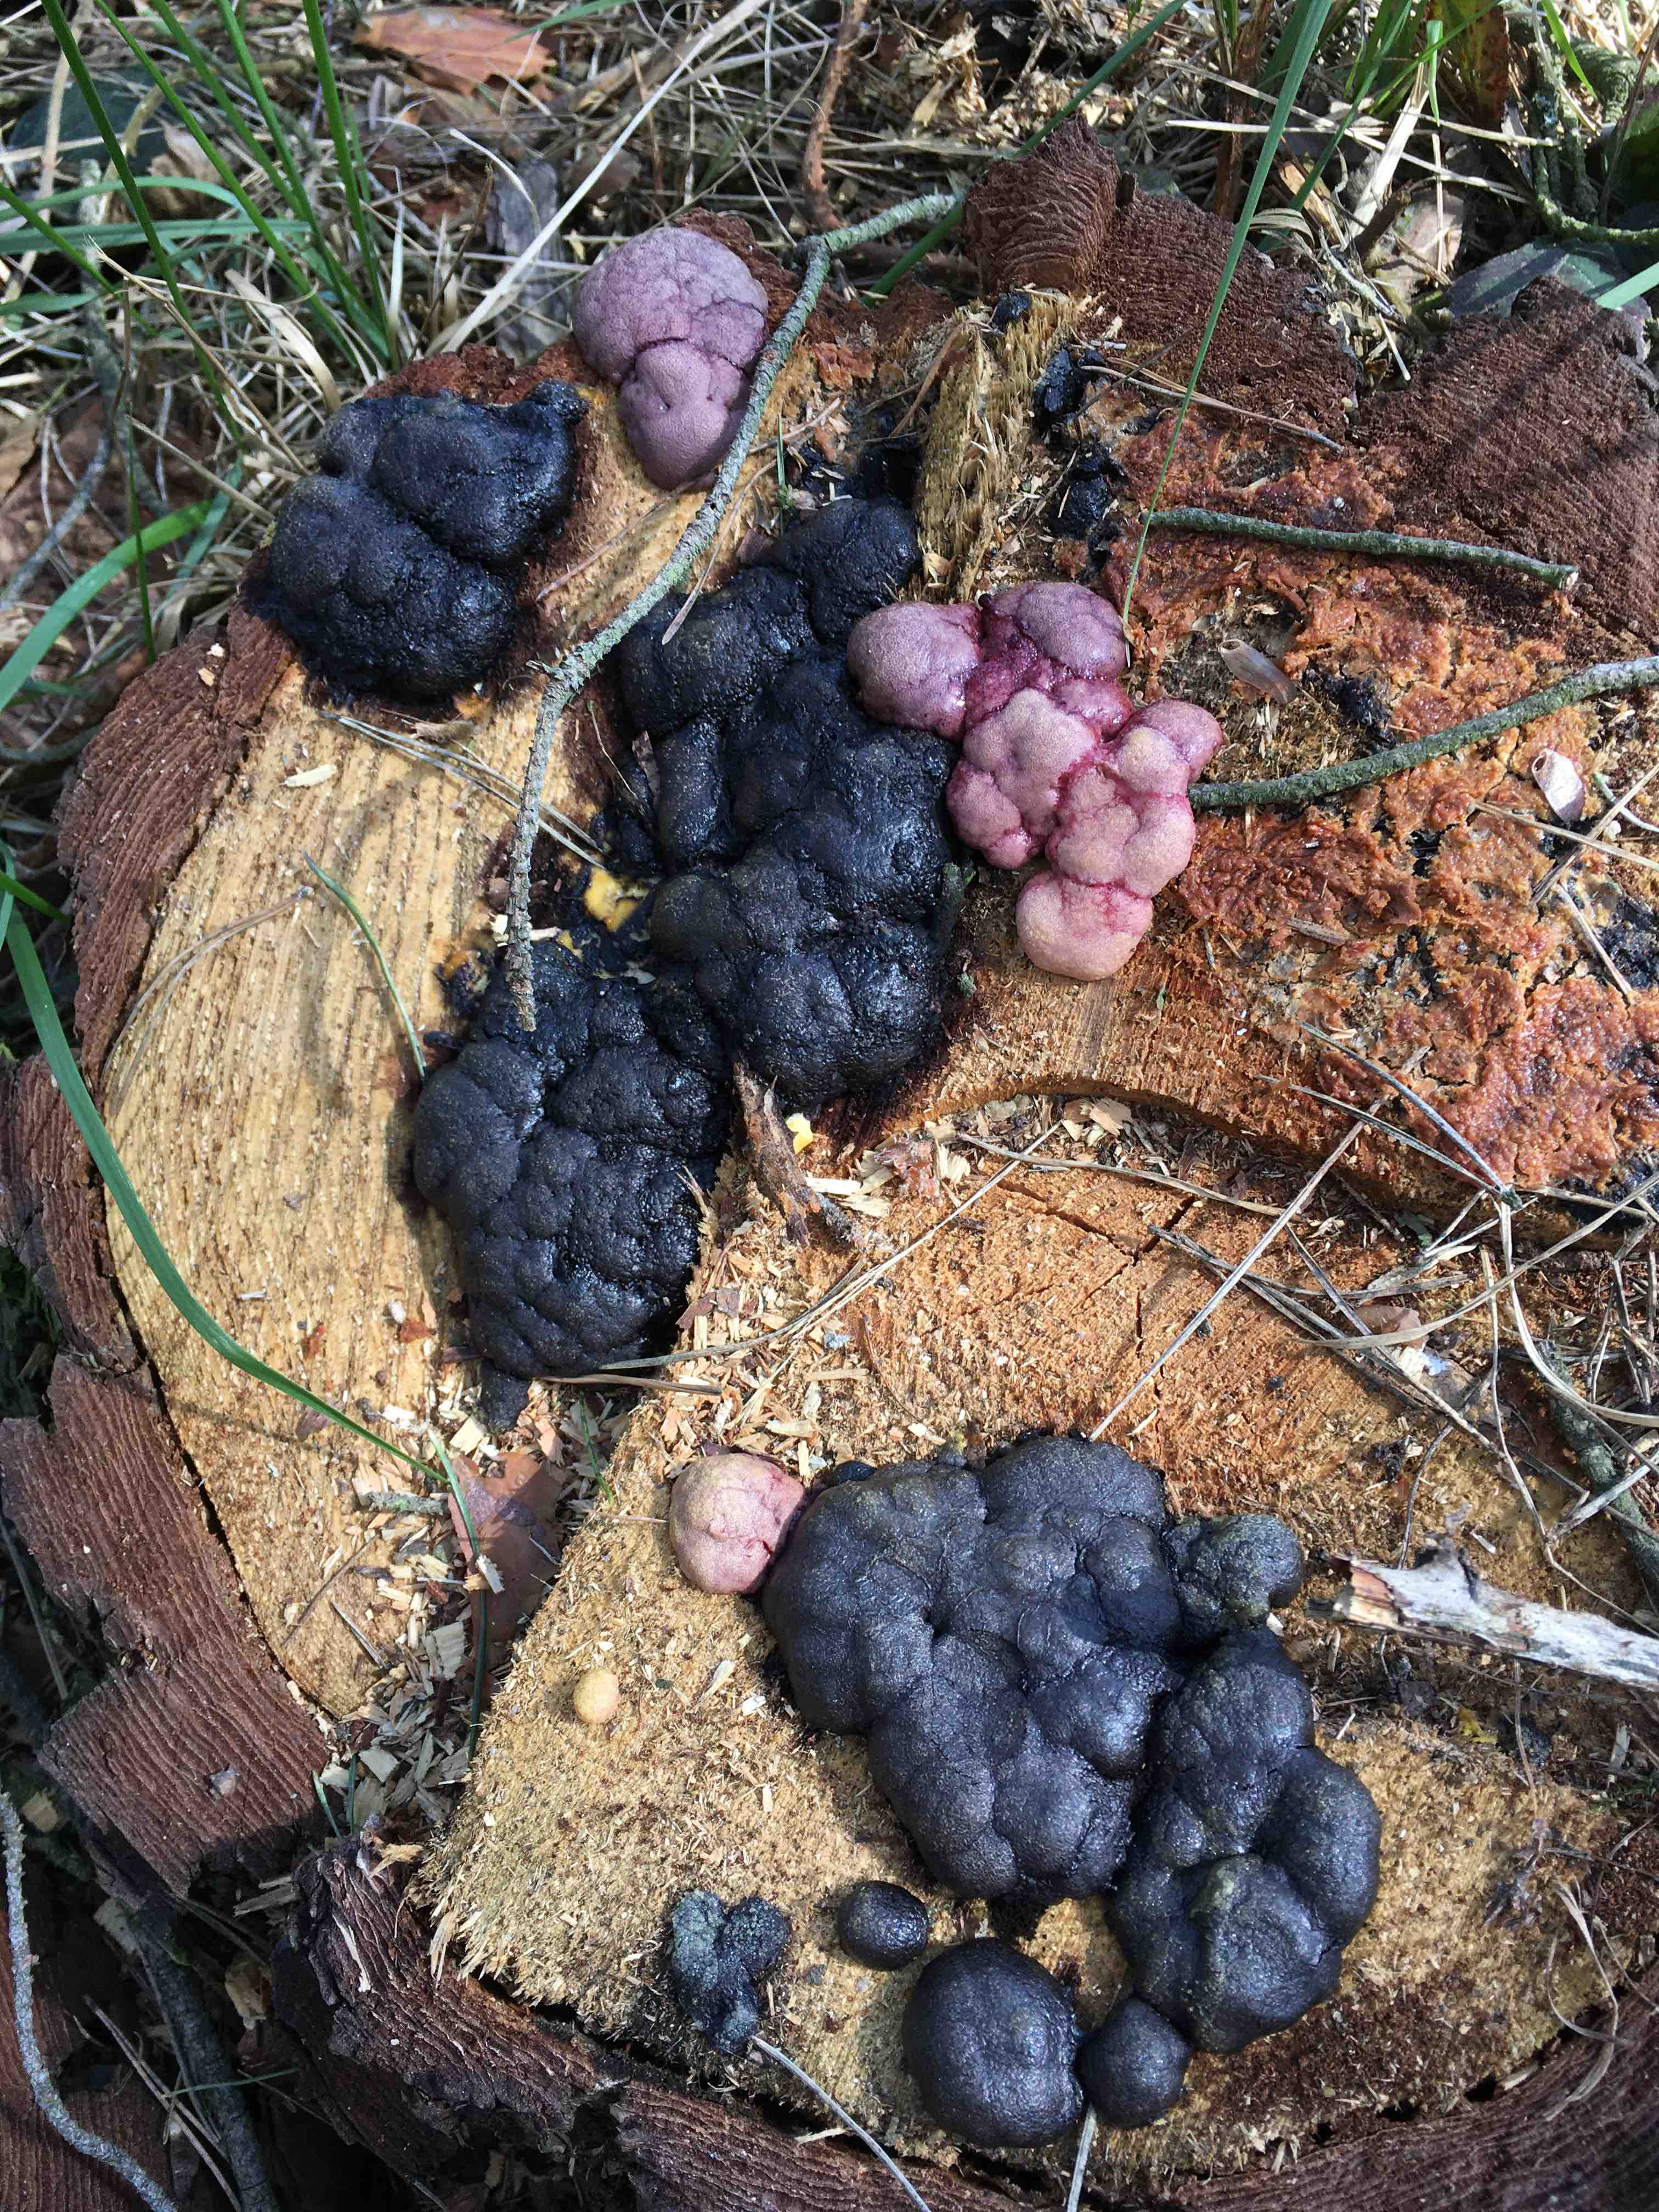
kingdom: Protozoa
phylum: Mycetozoa
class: Myxomycetes
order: Stemonitidales
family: Stemonitidaceae
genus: Amaurochaete
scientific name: Amaurochaete
